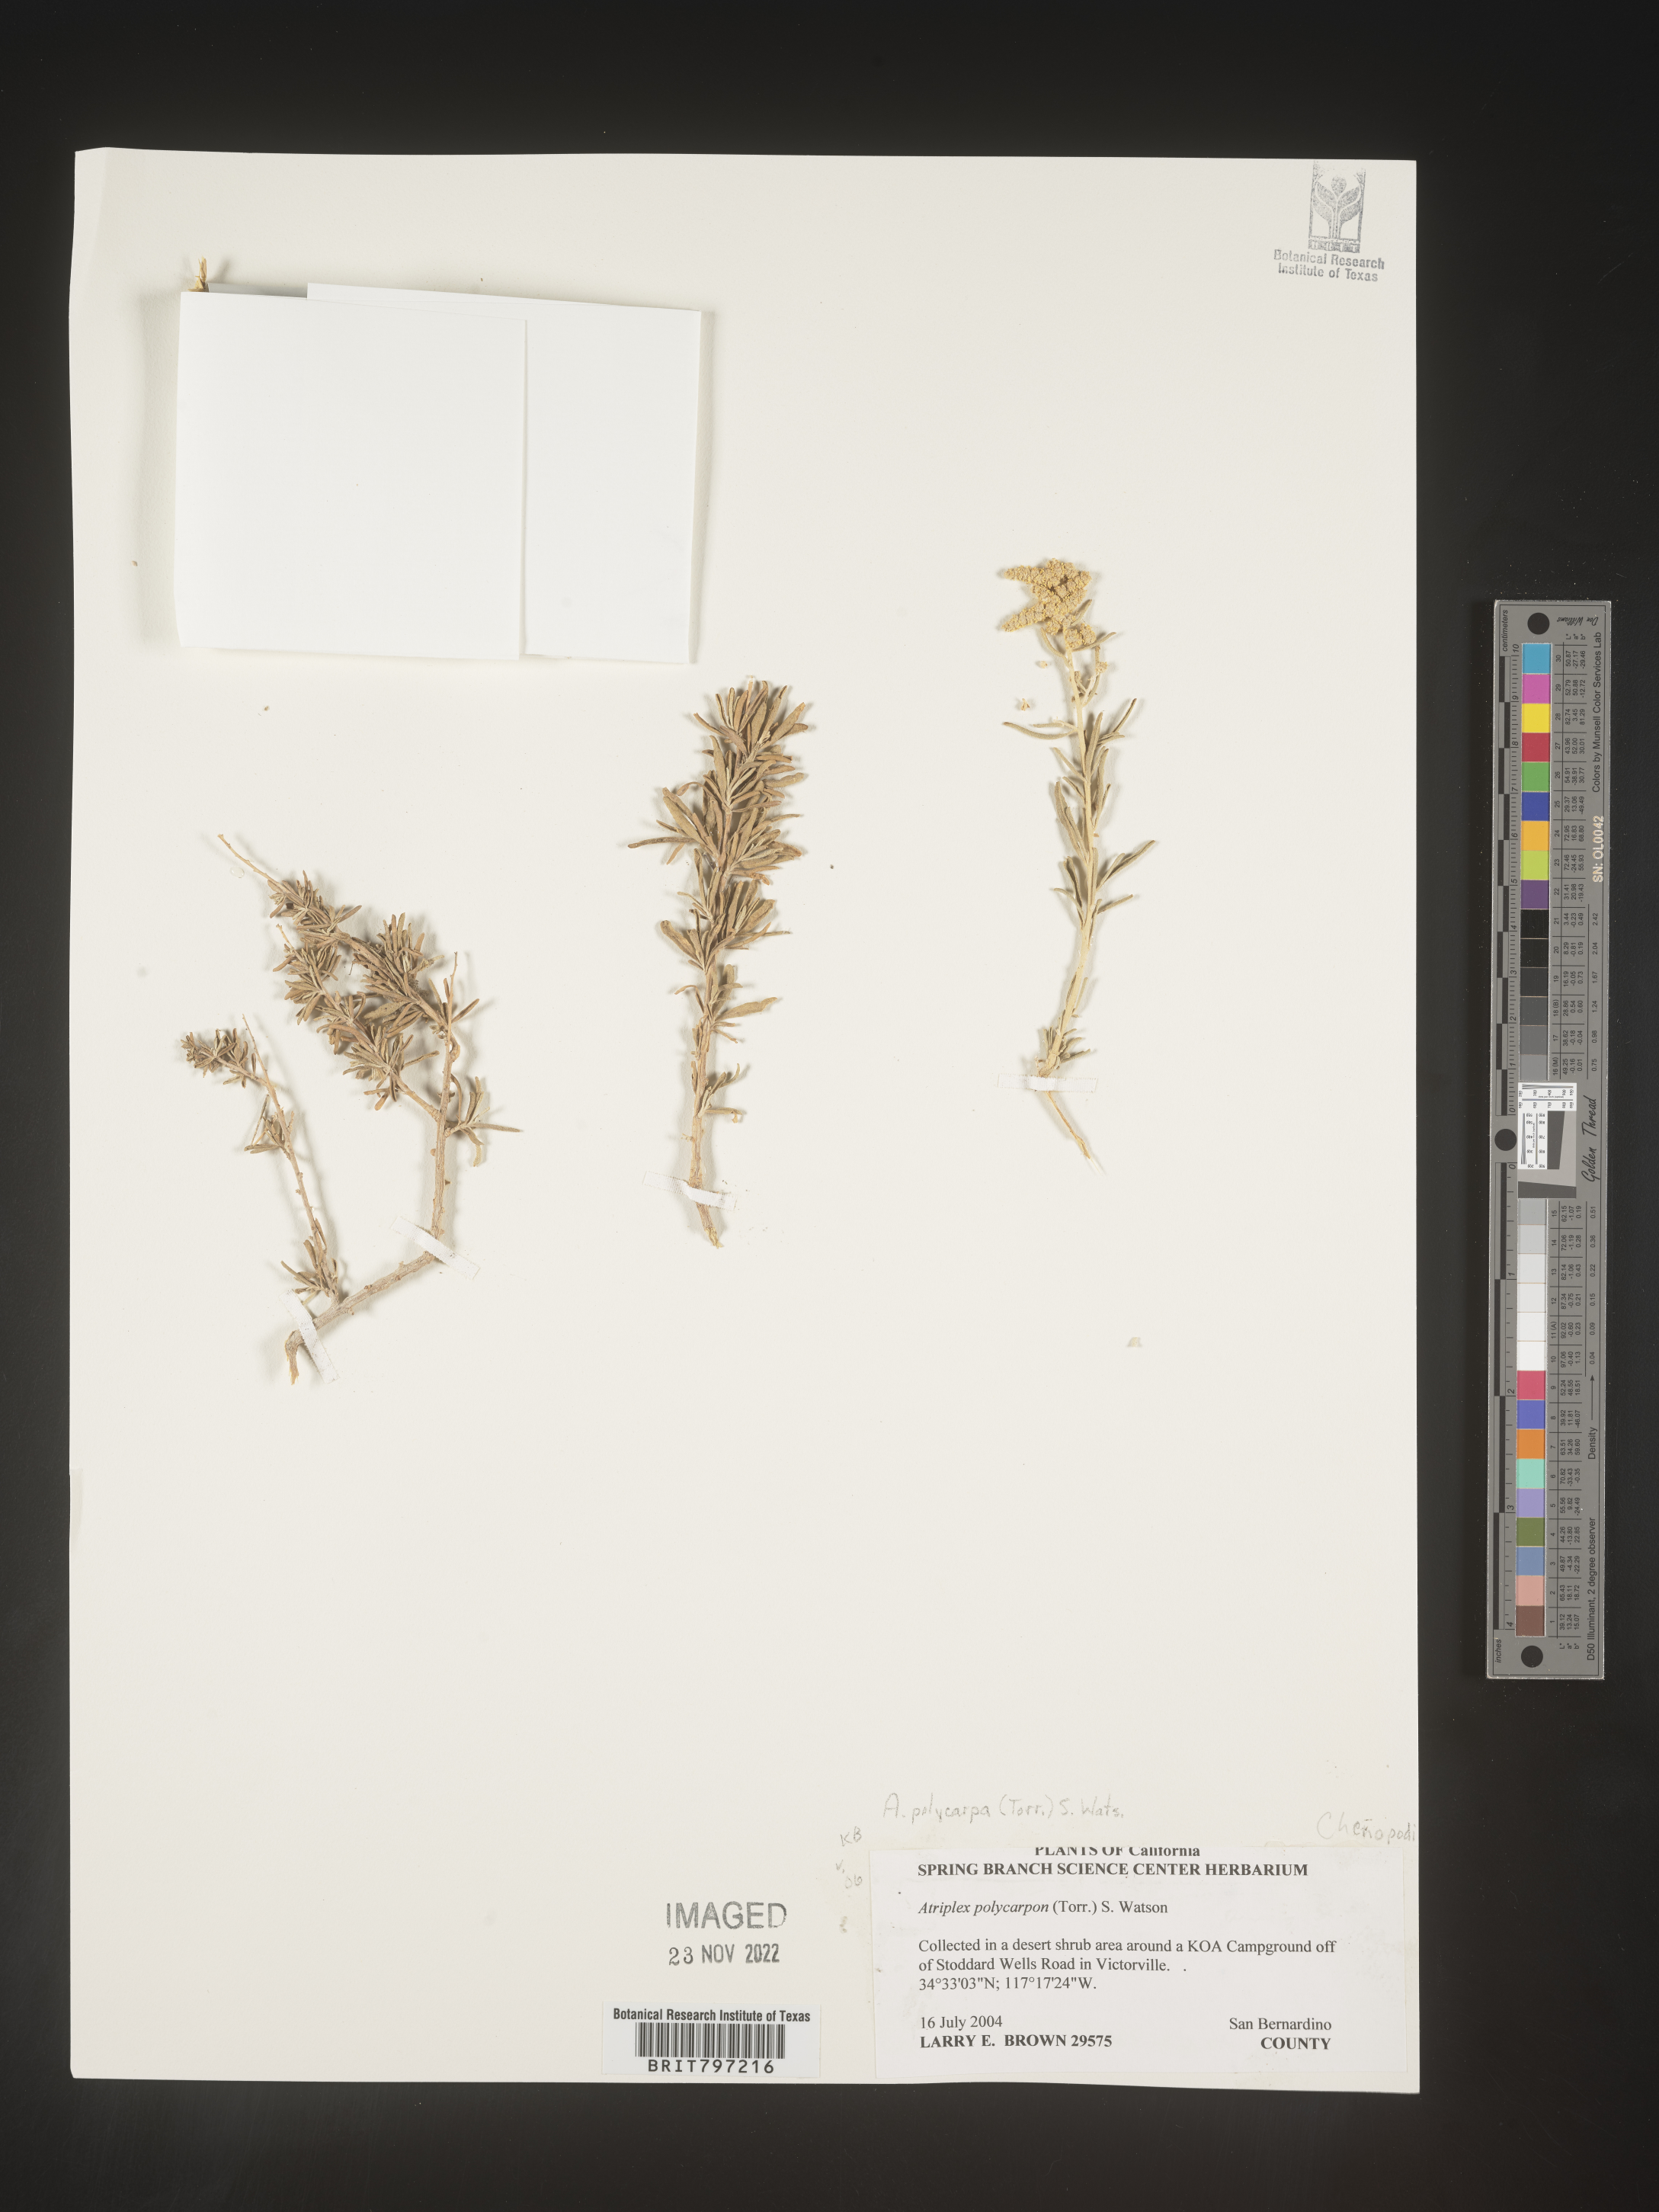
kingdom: Plantae
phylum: Tracheophyta
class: Magnoliopsida
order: Caryophyllales
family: Amaranthaceae
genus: Atriplex
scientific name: Atriplex polycarpa
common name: Desert saltbush
